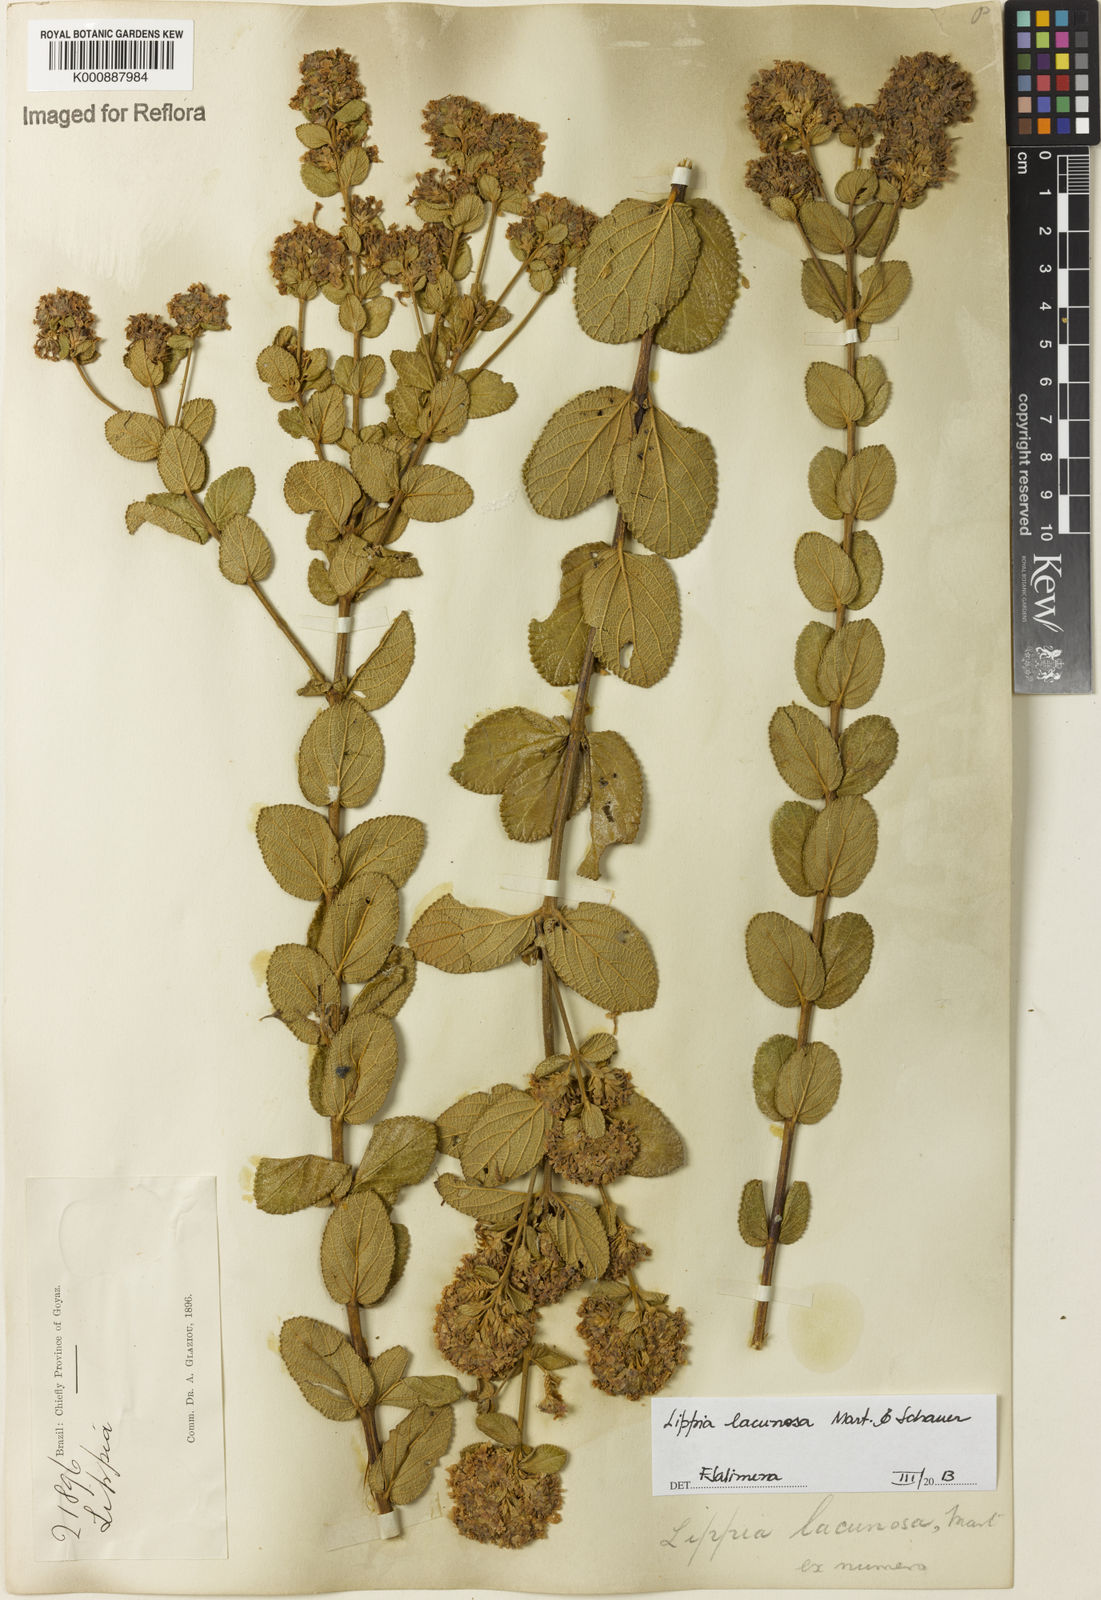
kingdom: Plantae
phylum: Tracheophyta
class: Magnoliopsida
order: Lamiales
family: Verbenaceae
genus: Lippia
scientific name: Lippia lacunosa
